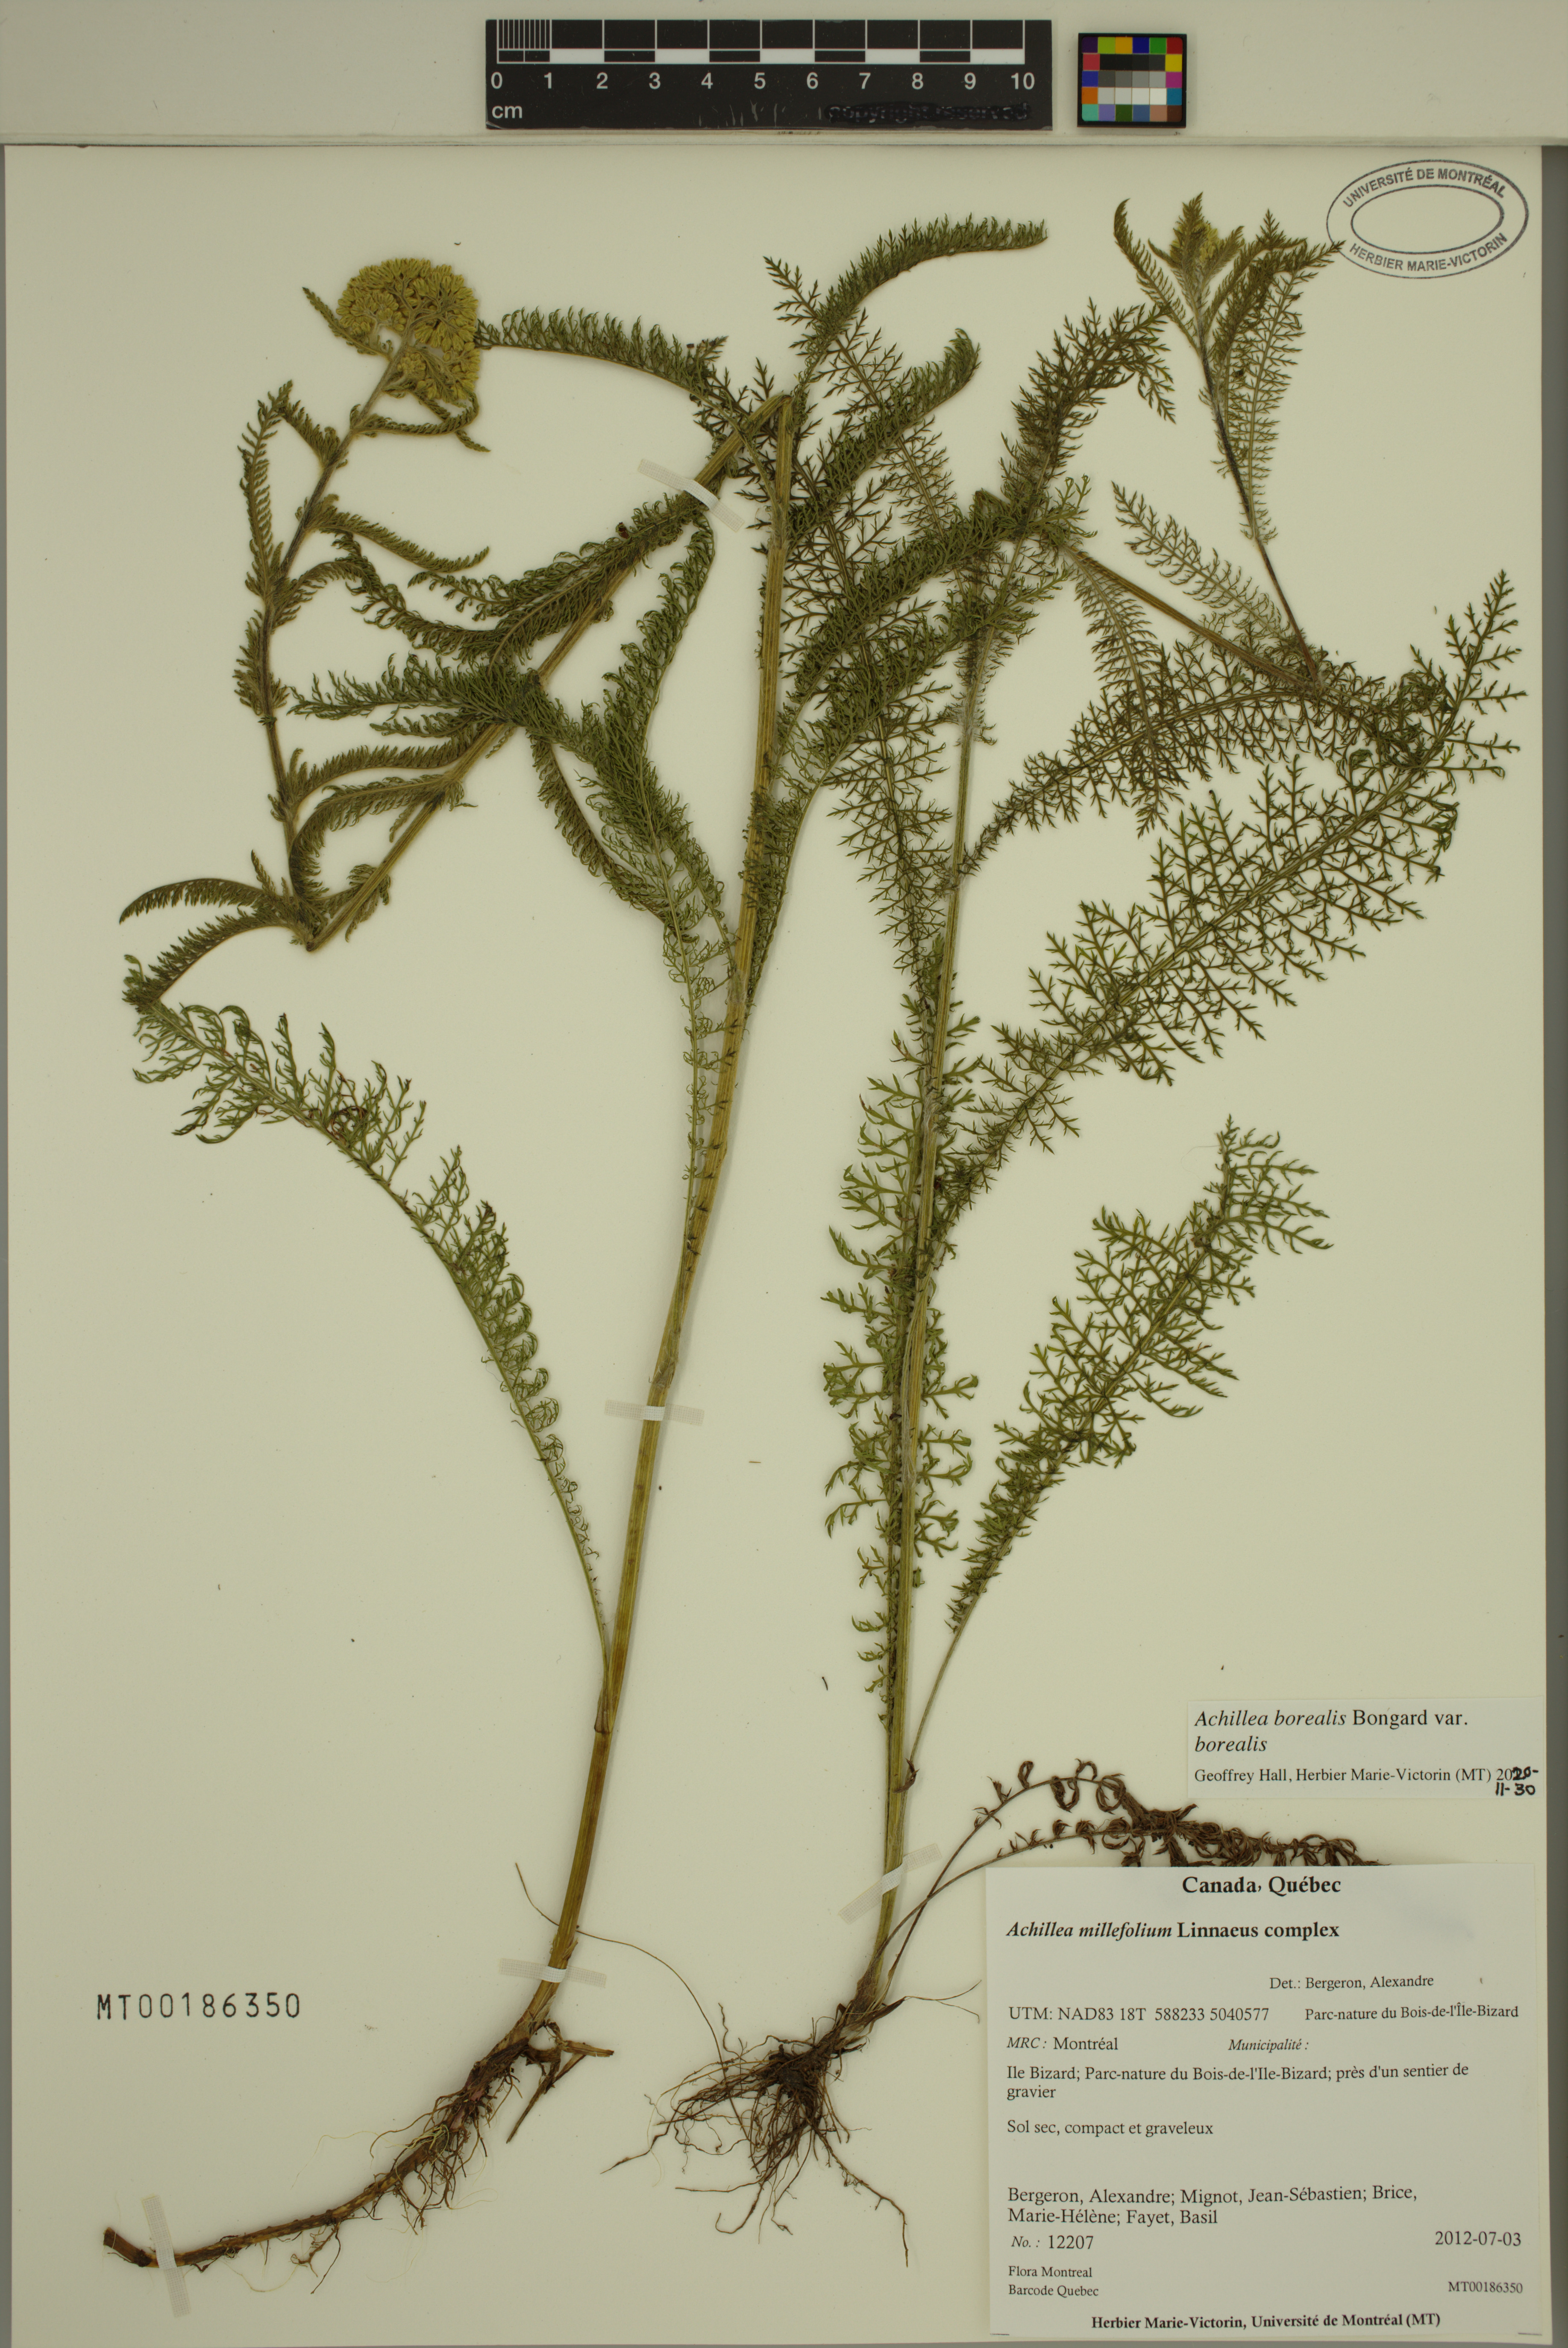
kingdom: Plantae
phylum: Tracheophyta
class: Magnoliopsida
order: Asterales
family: Asteraceae
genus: Achillea
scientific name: Achillea millefolium
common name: Yarrow
